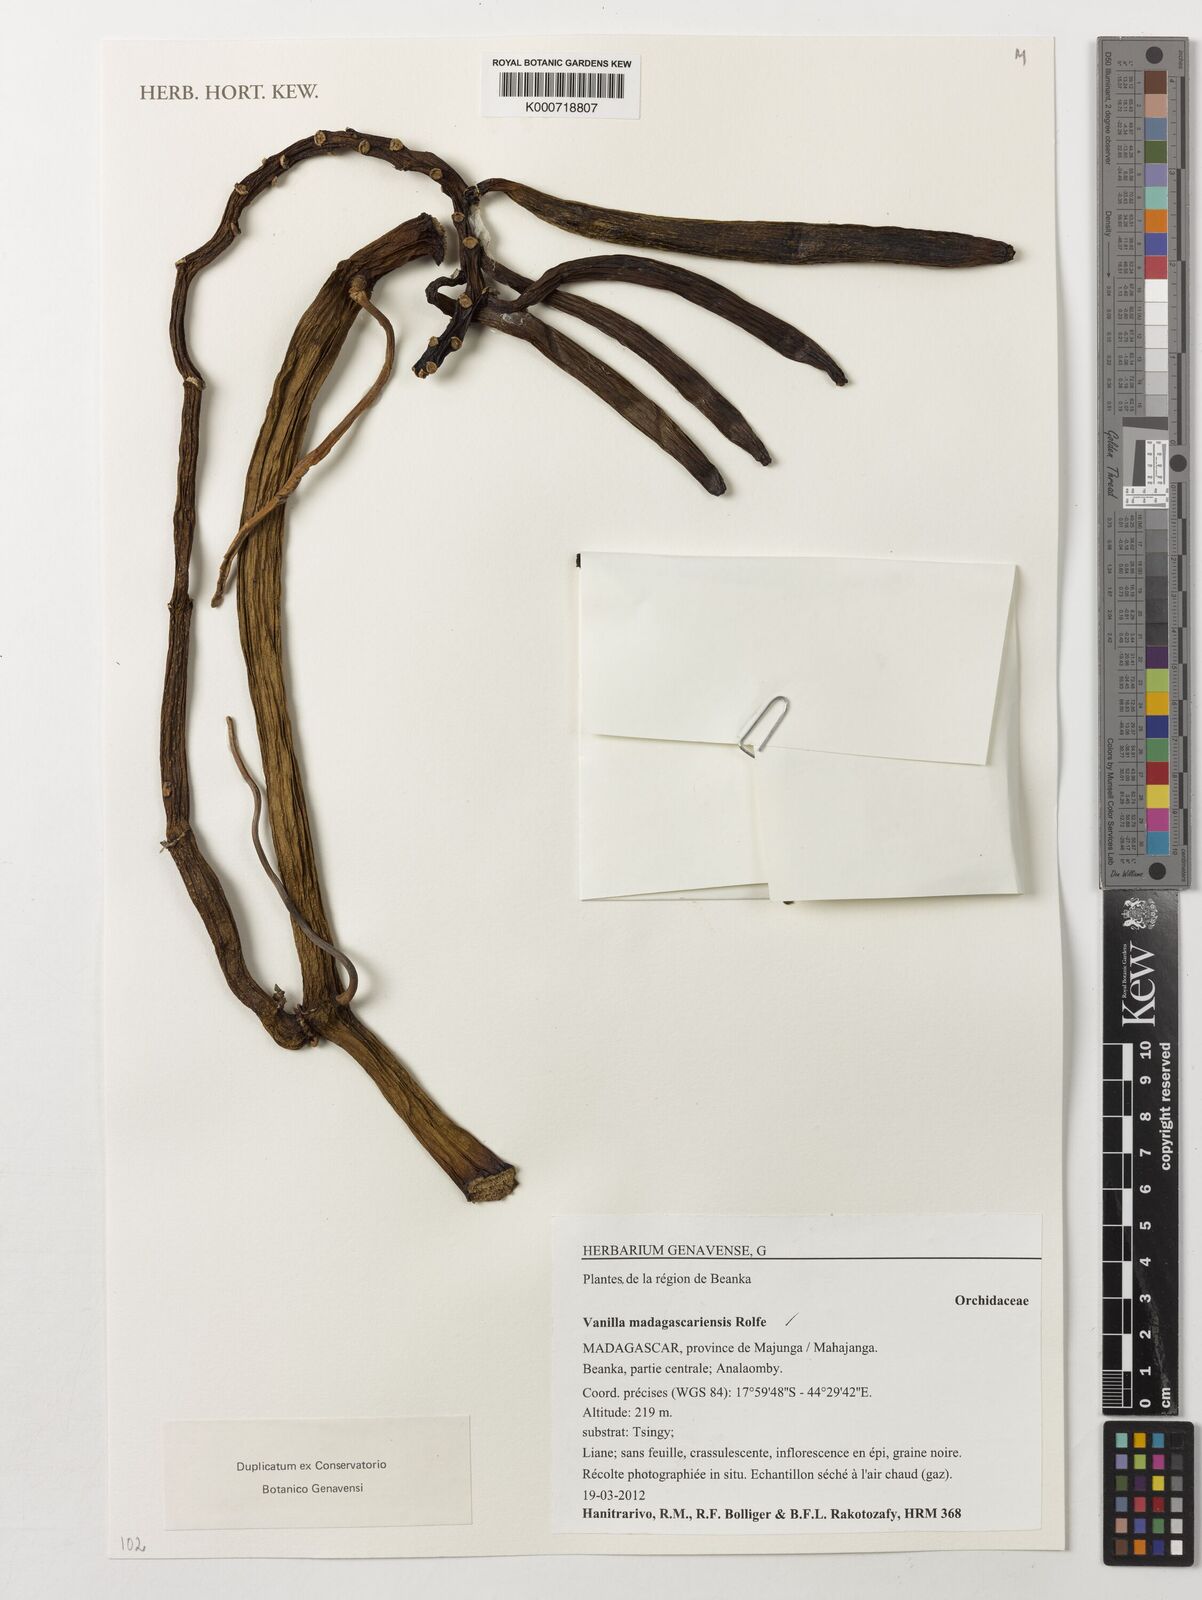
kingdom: Plantae
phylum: Tracheophyta
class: Liliopsida
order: Asparagales
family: Orchidaceae
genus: Vanilla
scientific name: Vanilla madagascariensis
